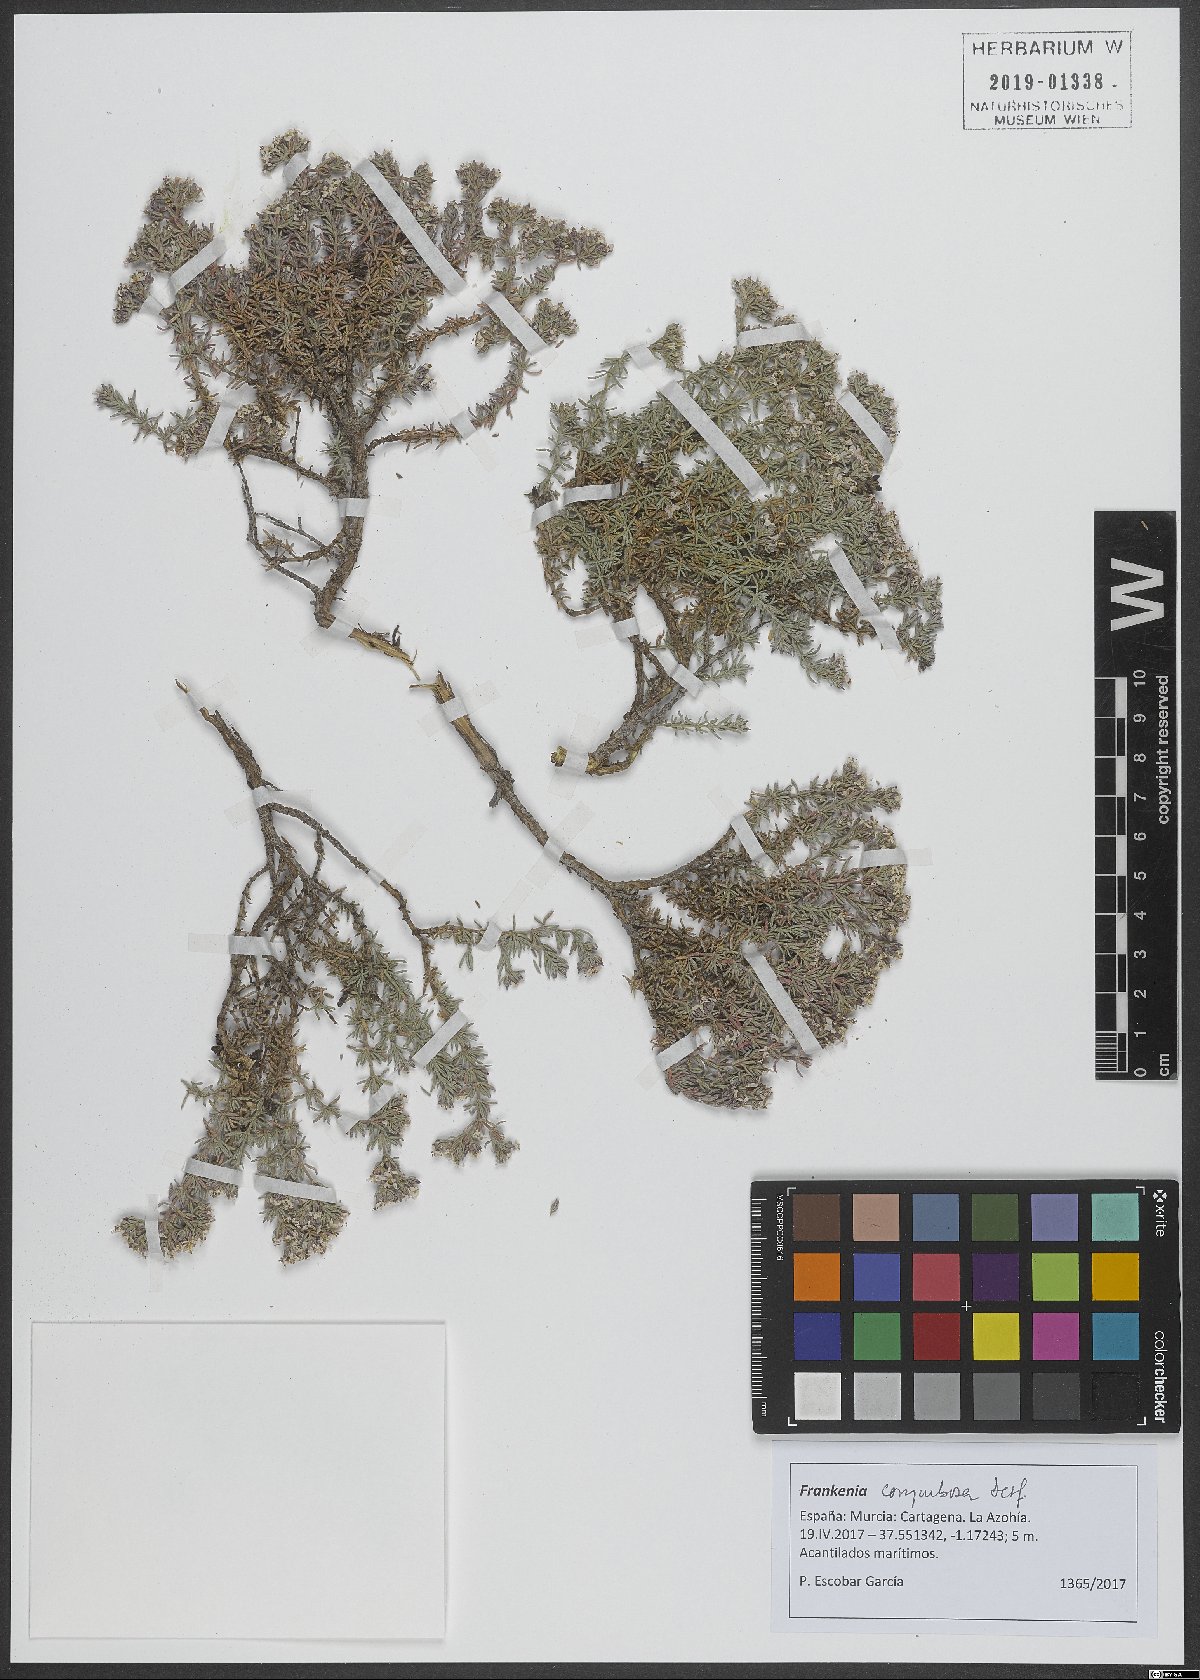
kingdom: Plantae
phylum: Tracheophyta
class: Magnoliopsida
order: Caryophyllales
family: Frankeniaceae
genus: Frankenia
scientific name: Frankenia corymbosa
